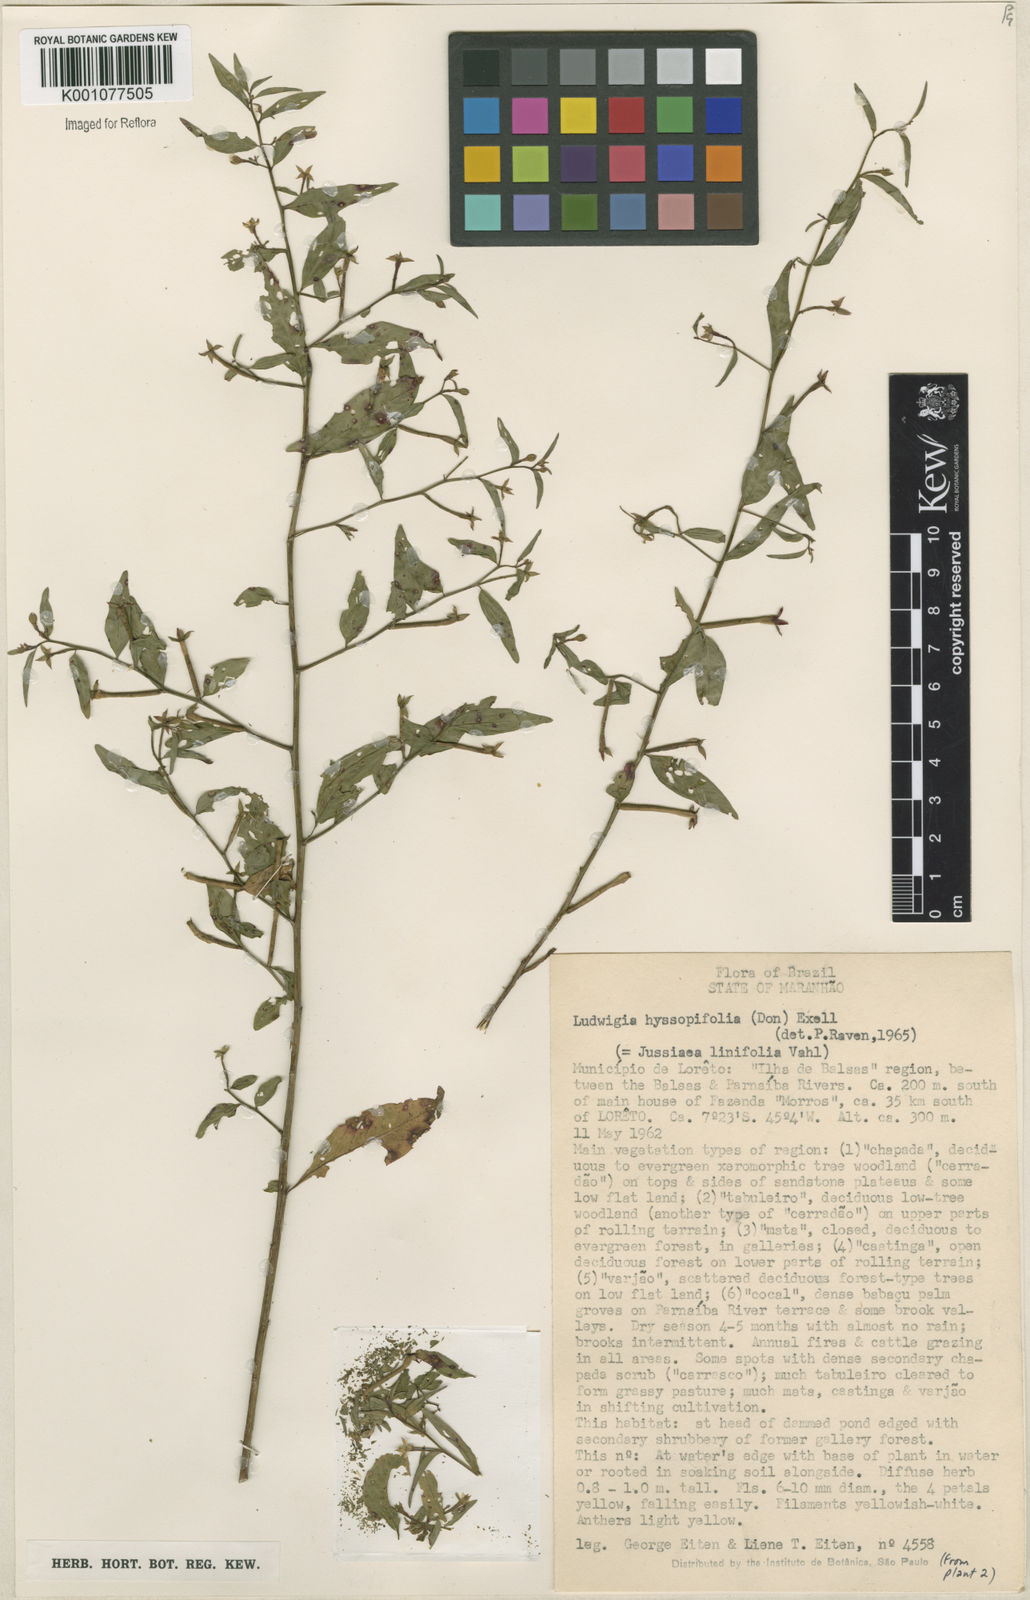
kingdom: Plantae
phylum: Tracheophyta
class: Magnoliopsida
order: Myrtales
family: Onagraceae
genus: Ludwigia
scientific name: Ludwigia hyssopifolia
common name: Linear leaf water primrose
